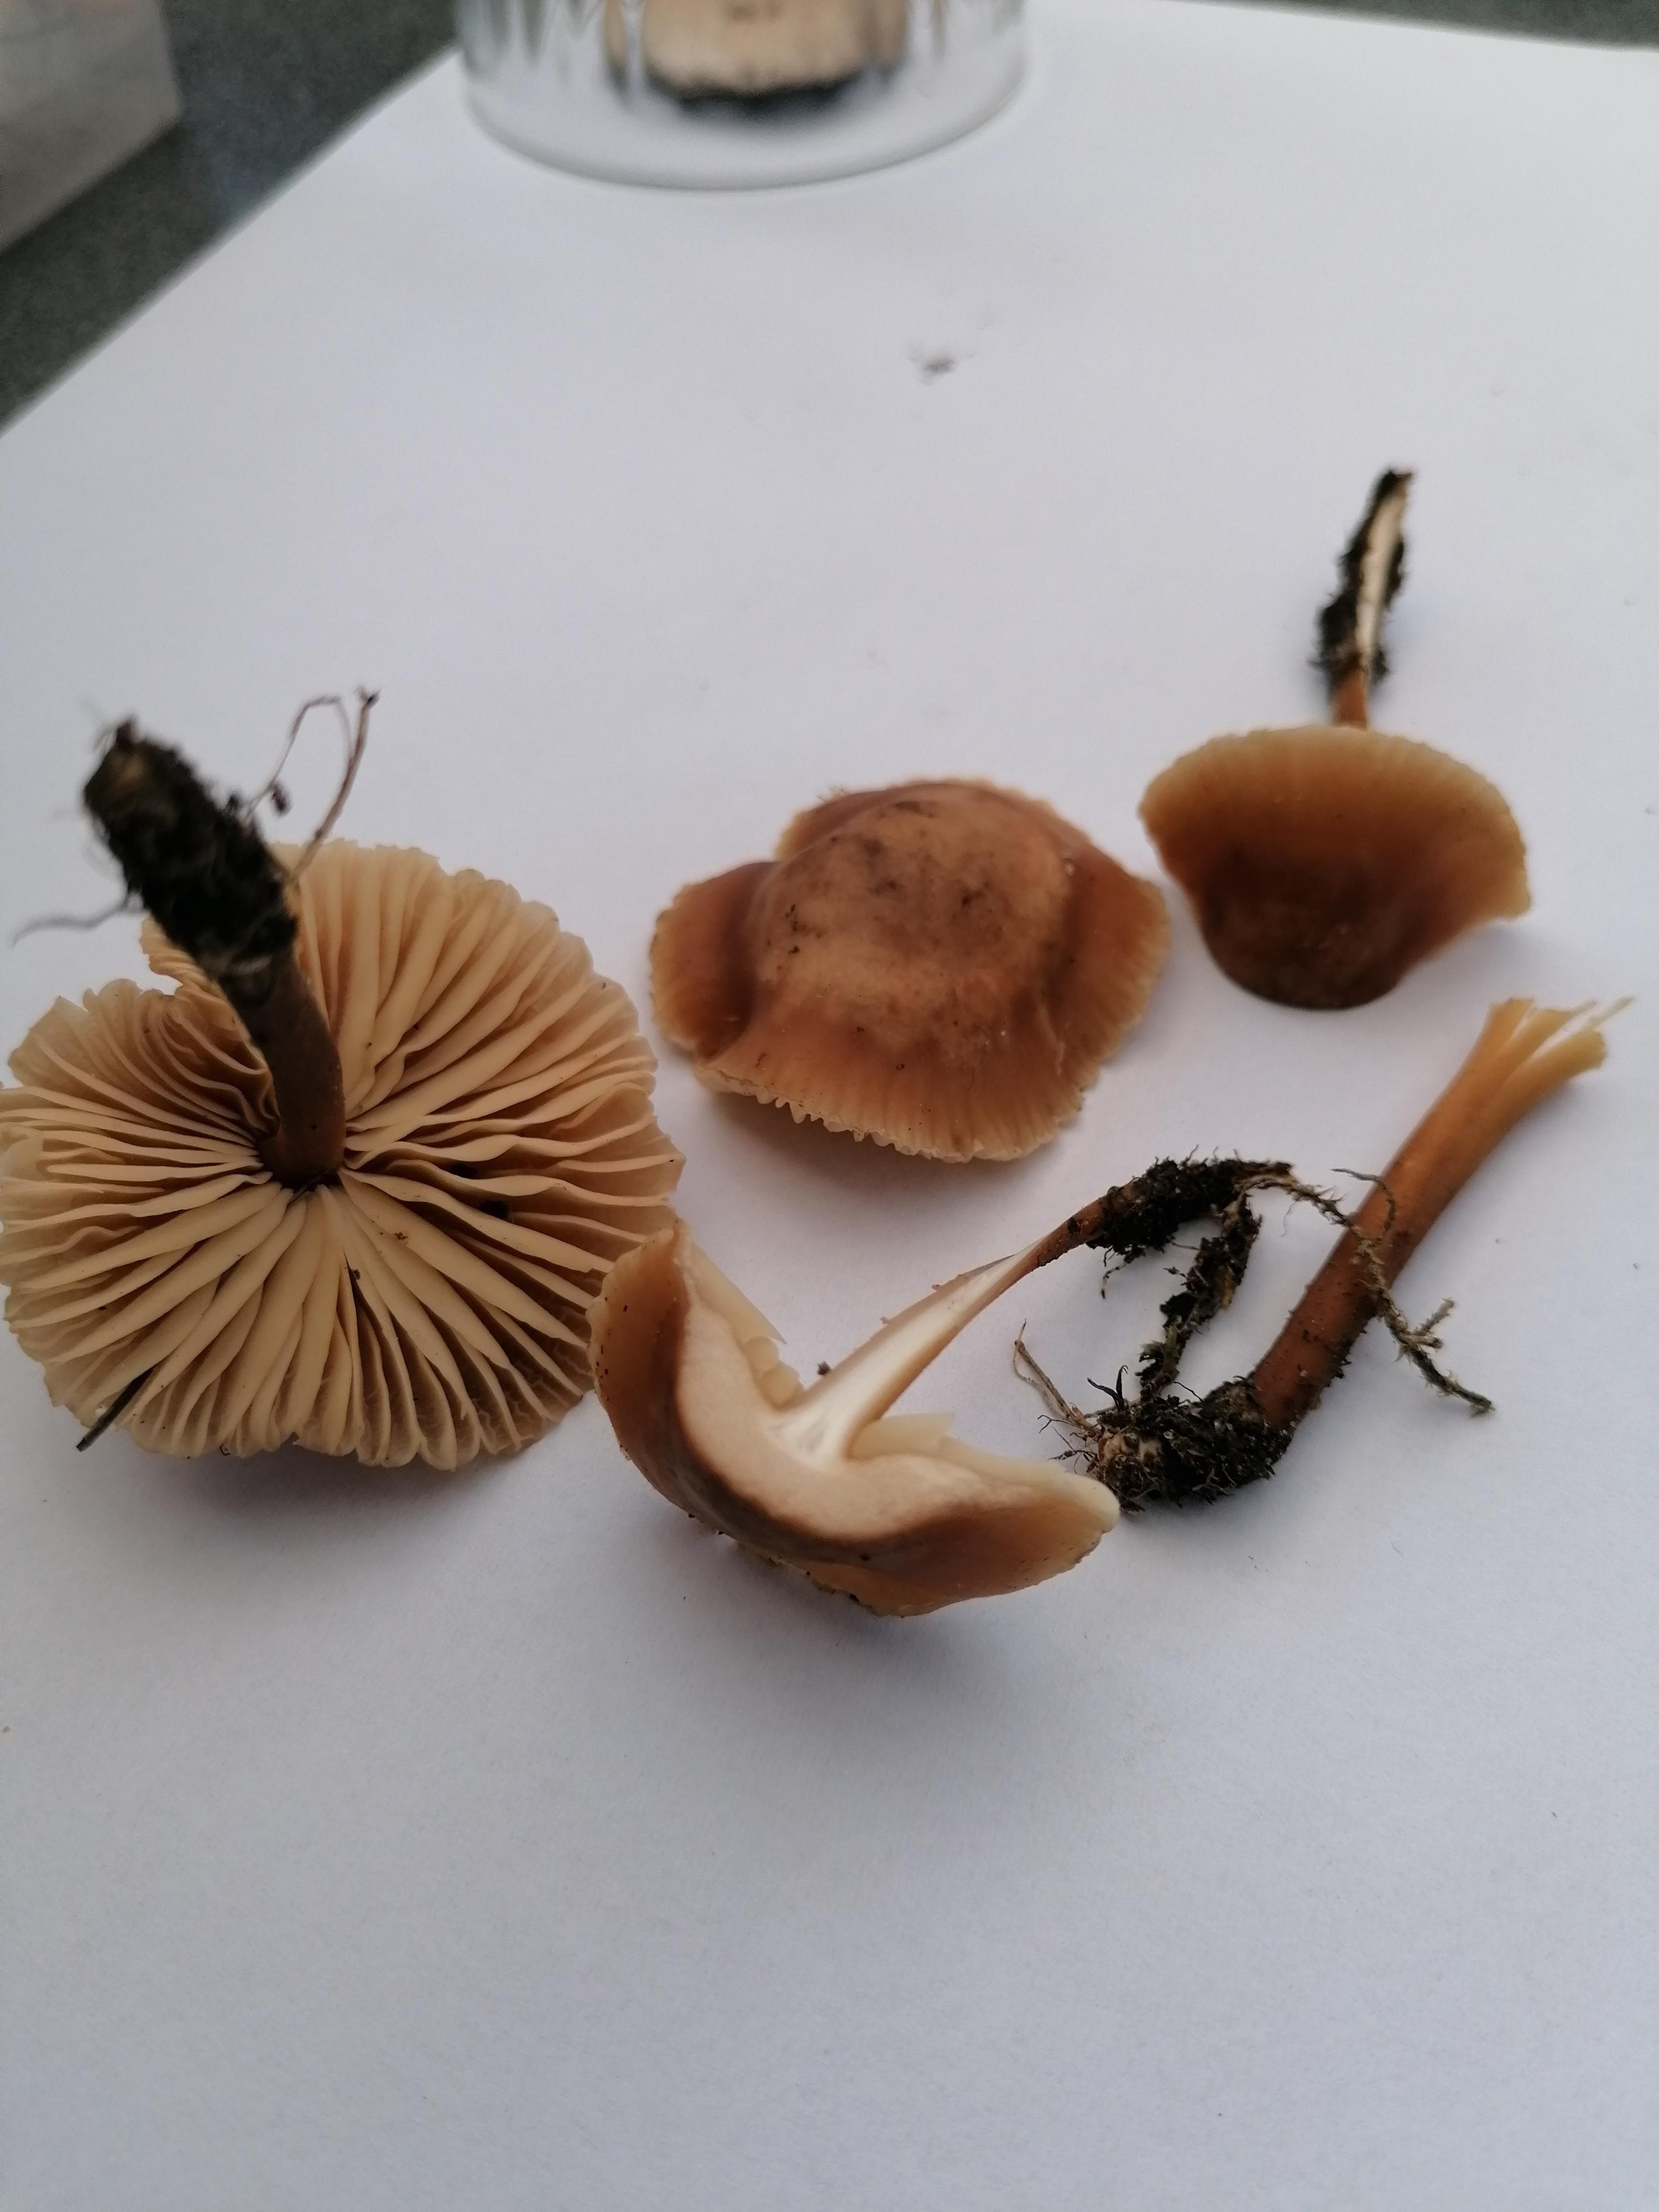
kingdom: Fungi
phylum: Basidiomycota
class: Agaricomycetes
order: Agaricales
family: Marasmiaceae
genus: Marasmius
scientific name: Marasmius oreades
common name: elledans-bruskhat
